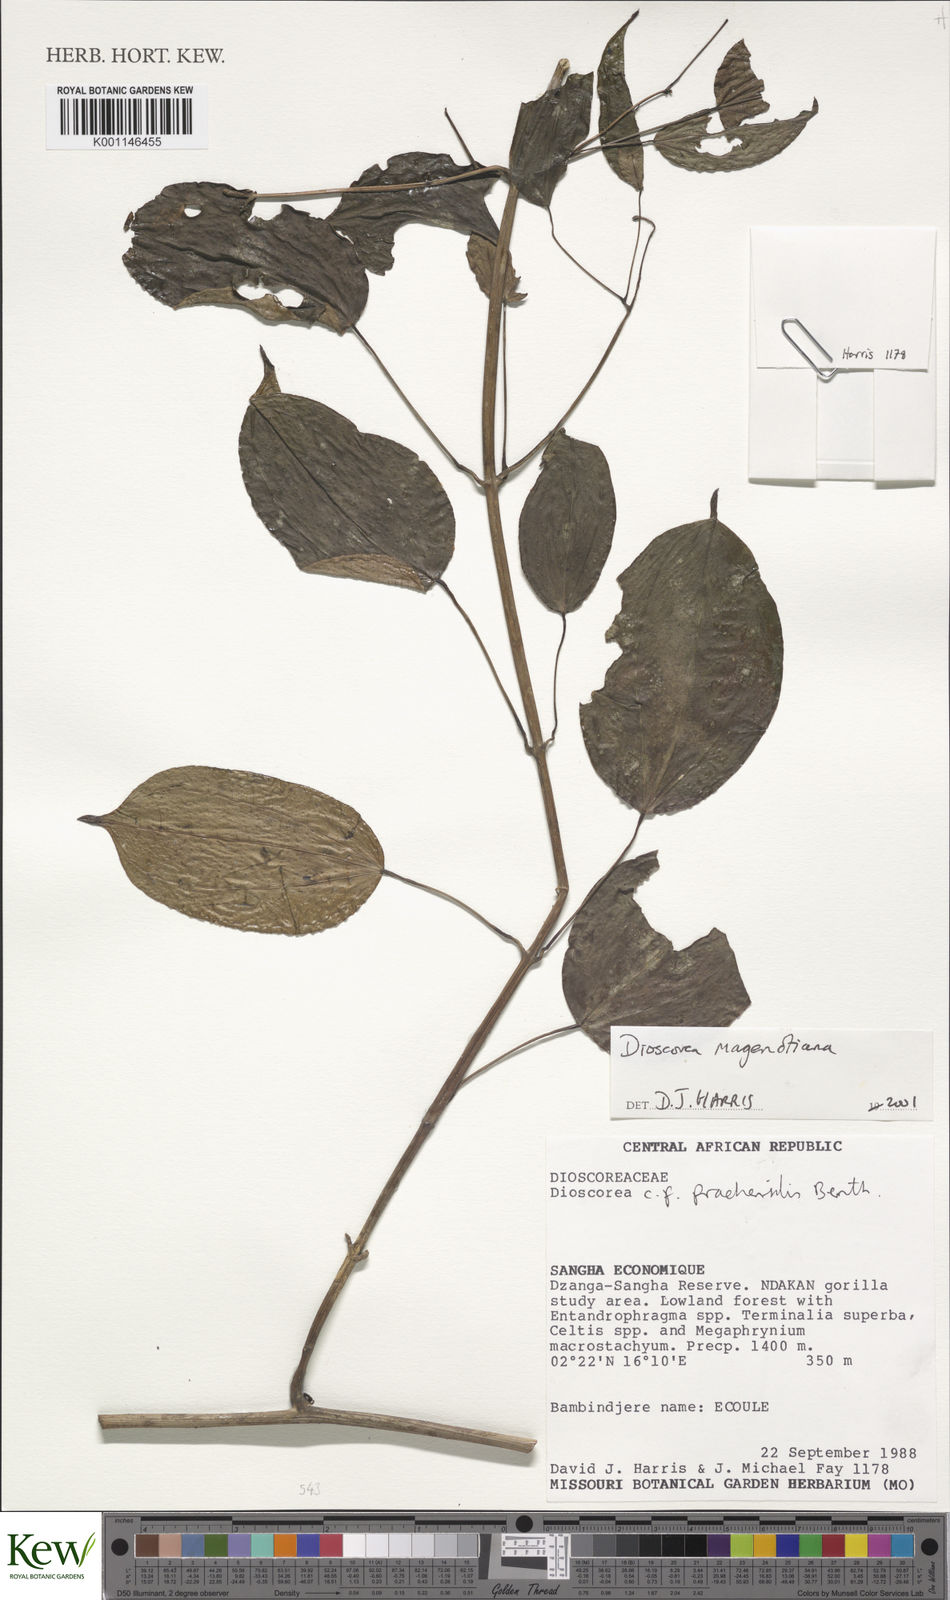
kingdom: Plantae
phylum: Tracheophyta
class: Liliopsida
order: Dioscoreales
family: Dioscoreaceae
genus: Dioscorea
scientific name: Dioscorea praehensilis
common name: Bush yam
